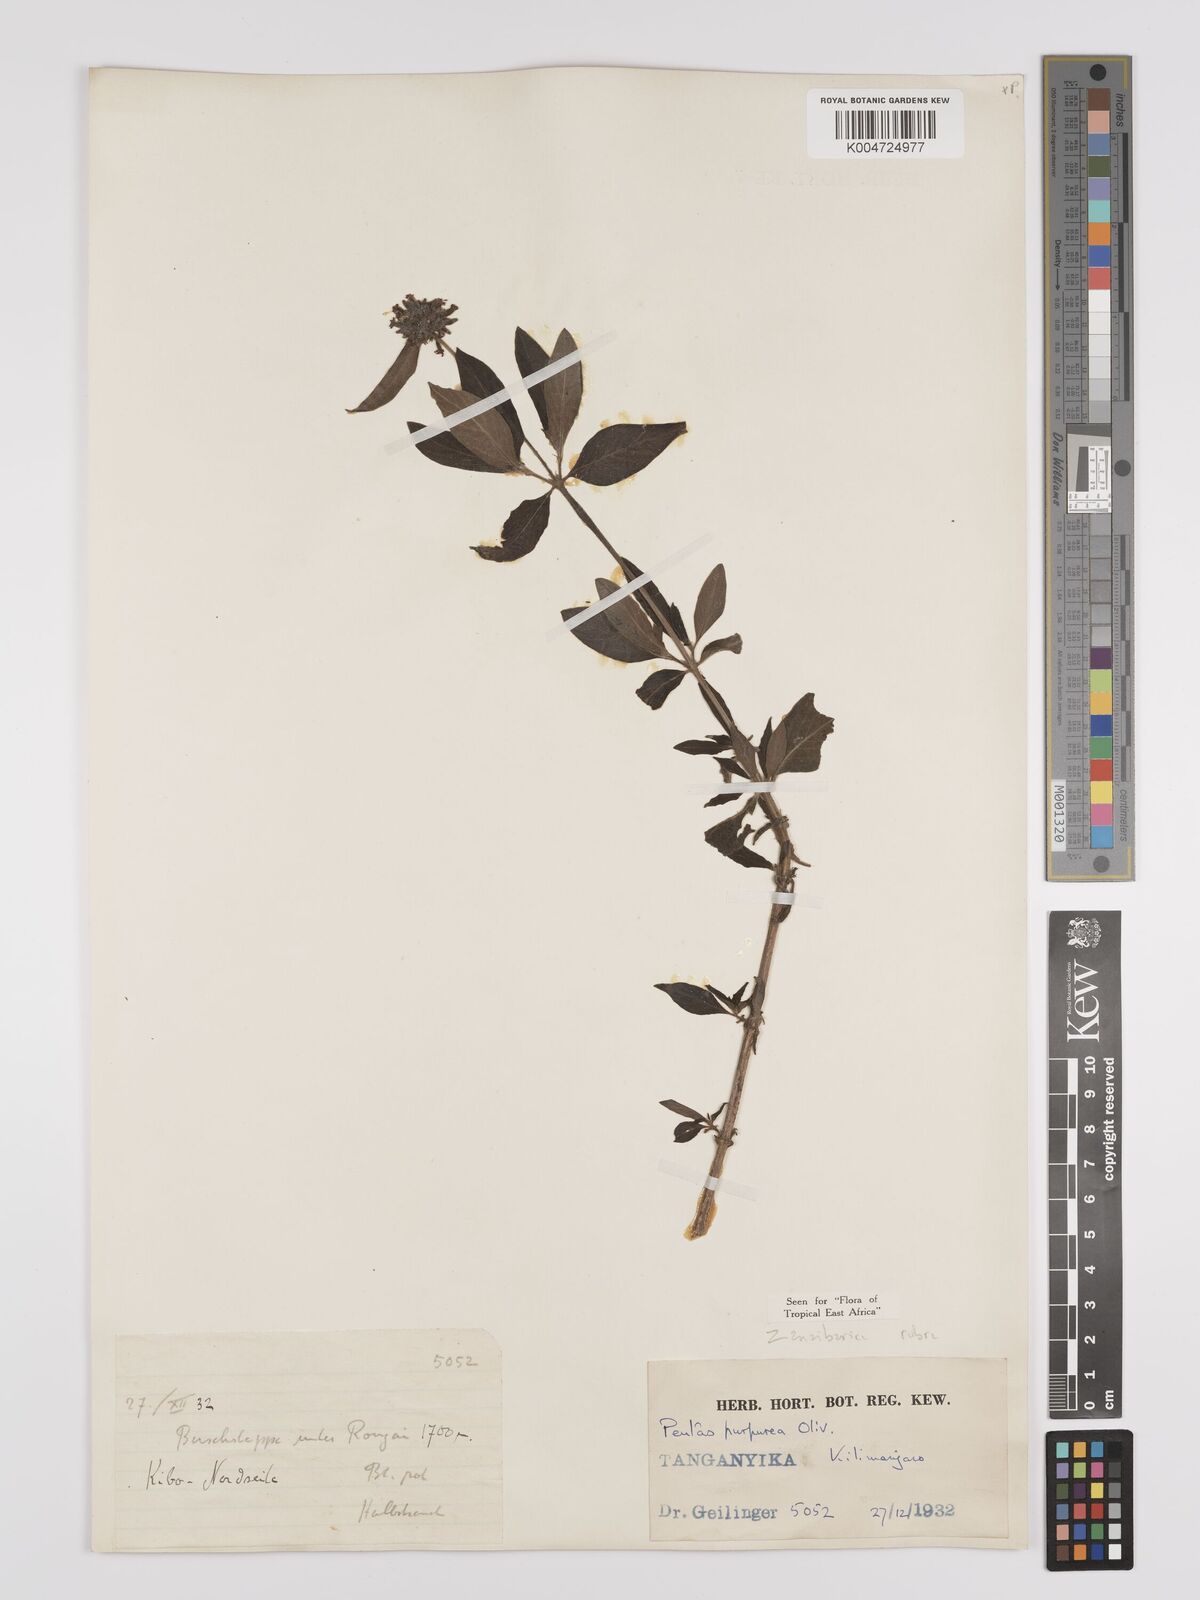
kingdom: Plantae
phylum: Tracheophyta
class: Magnoliopsida
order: Gentianales
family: Rubiaceae
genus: Pentas
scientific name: Pentas zanzibarica
